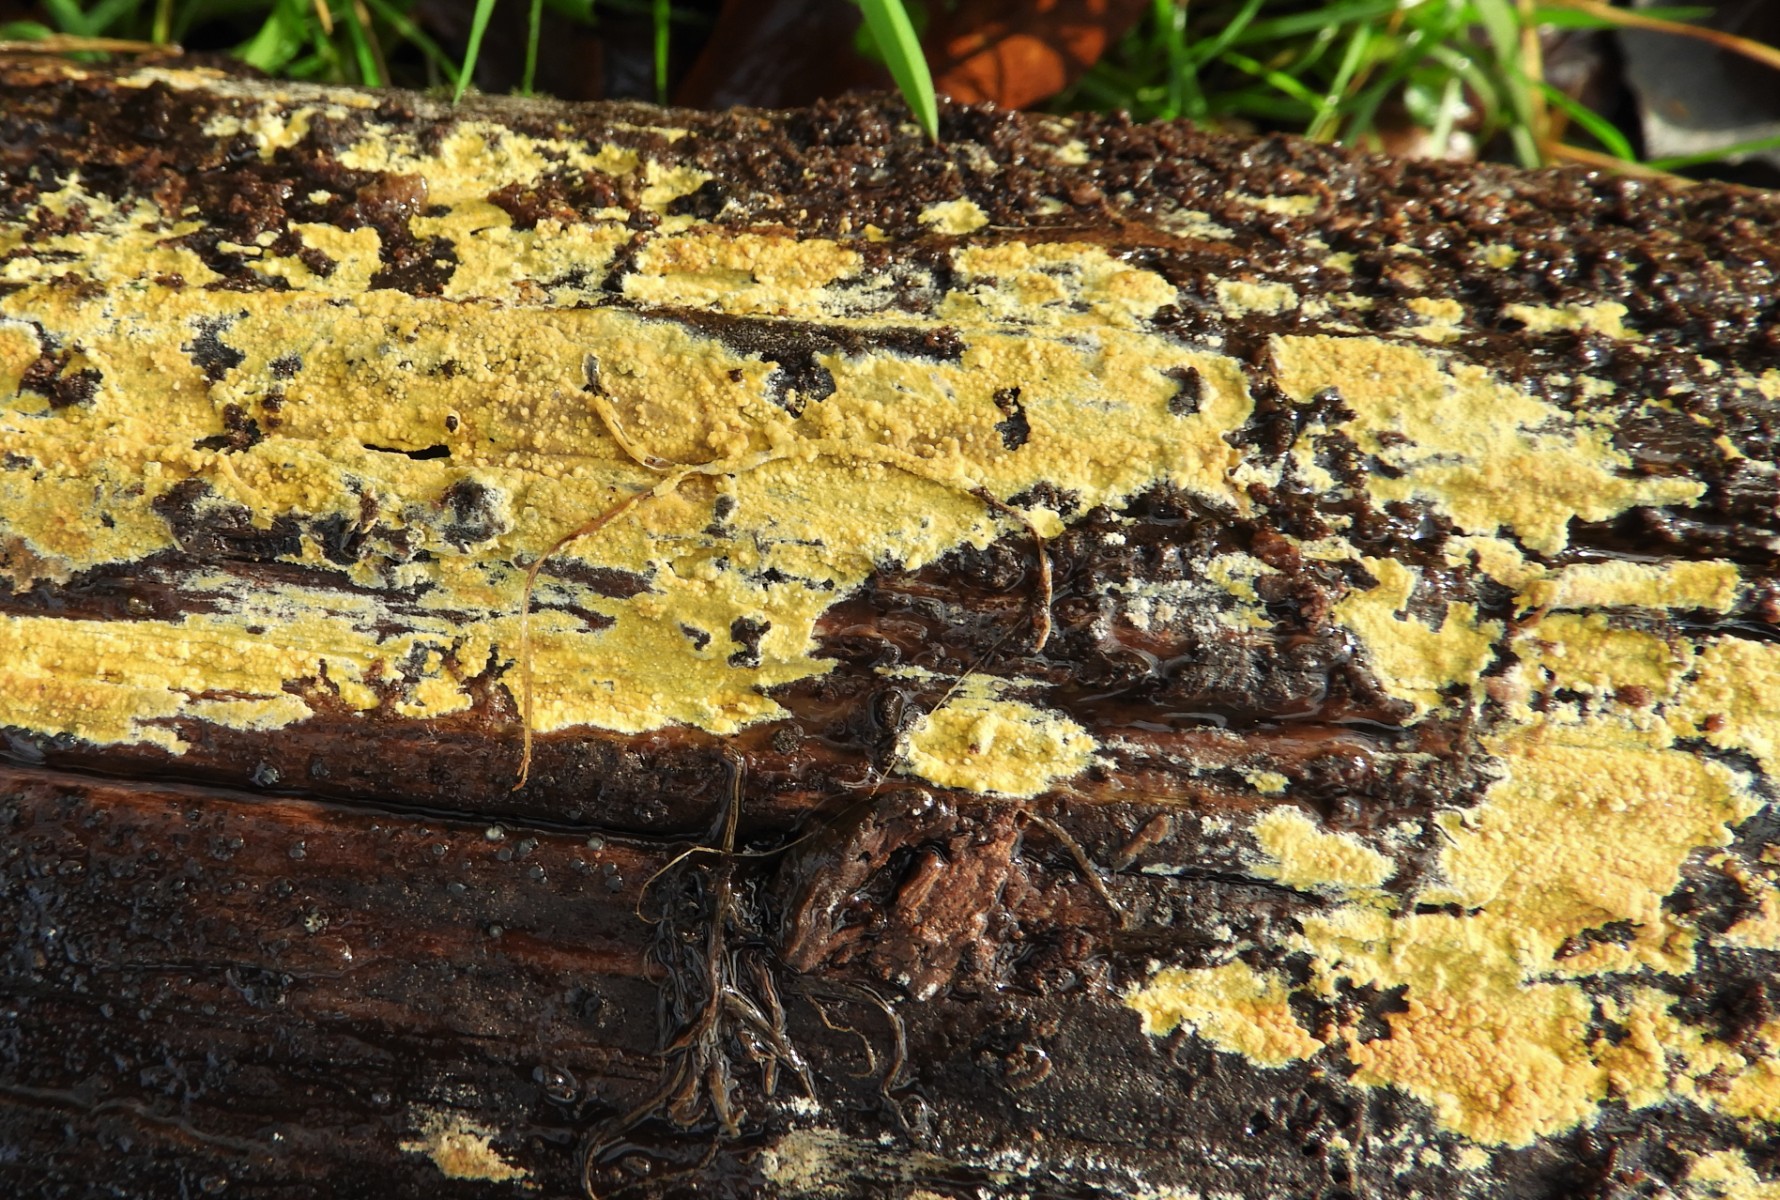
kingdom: Fungi
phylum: Basidiomycota
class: Agaricomycetes
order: Polyporales
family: Meruliaceae
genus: Phlebiodontia
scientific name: Phlebiodontia subochracea
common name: svovl-åresvamp
